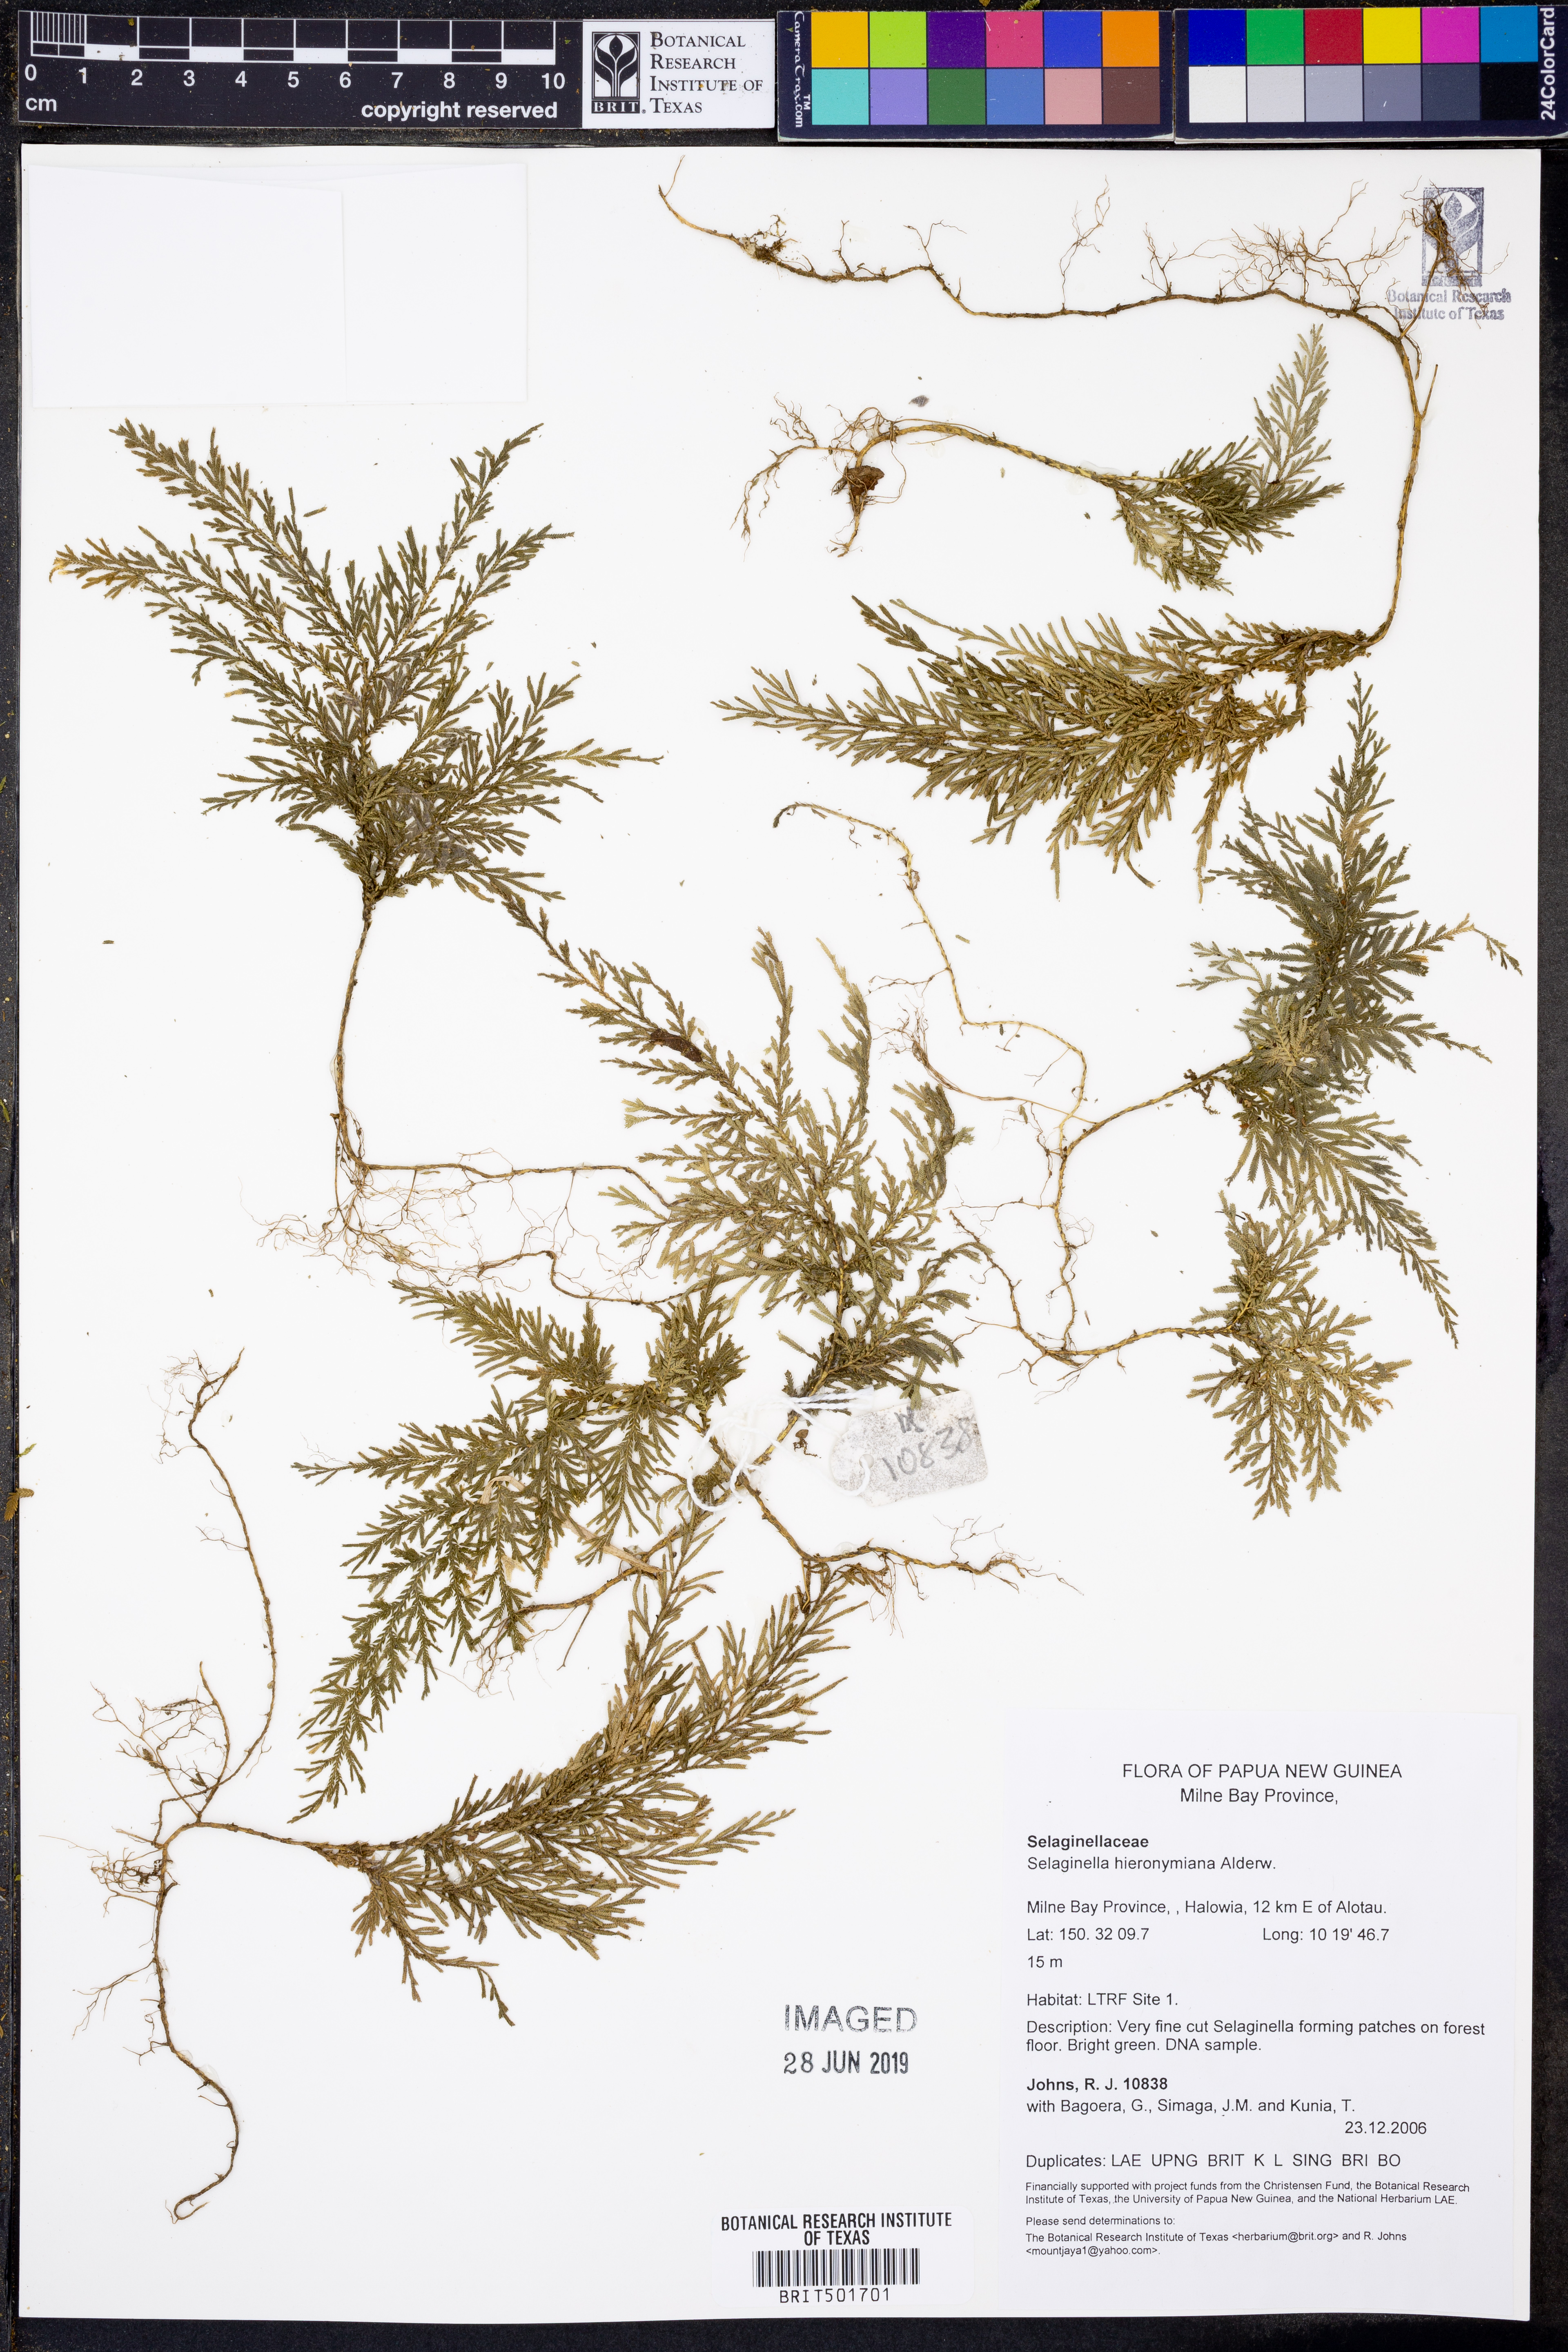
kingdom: Plantae
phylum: Tracheophyta
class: Lycopodiopsida
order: Selaginellales
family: Selaginellaceae
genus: Selaginella
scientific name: Selaginella hieronymiana
